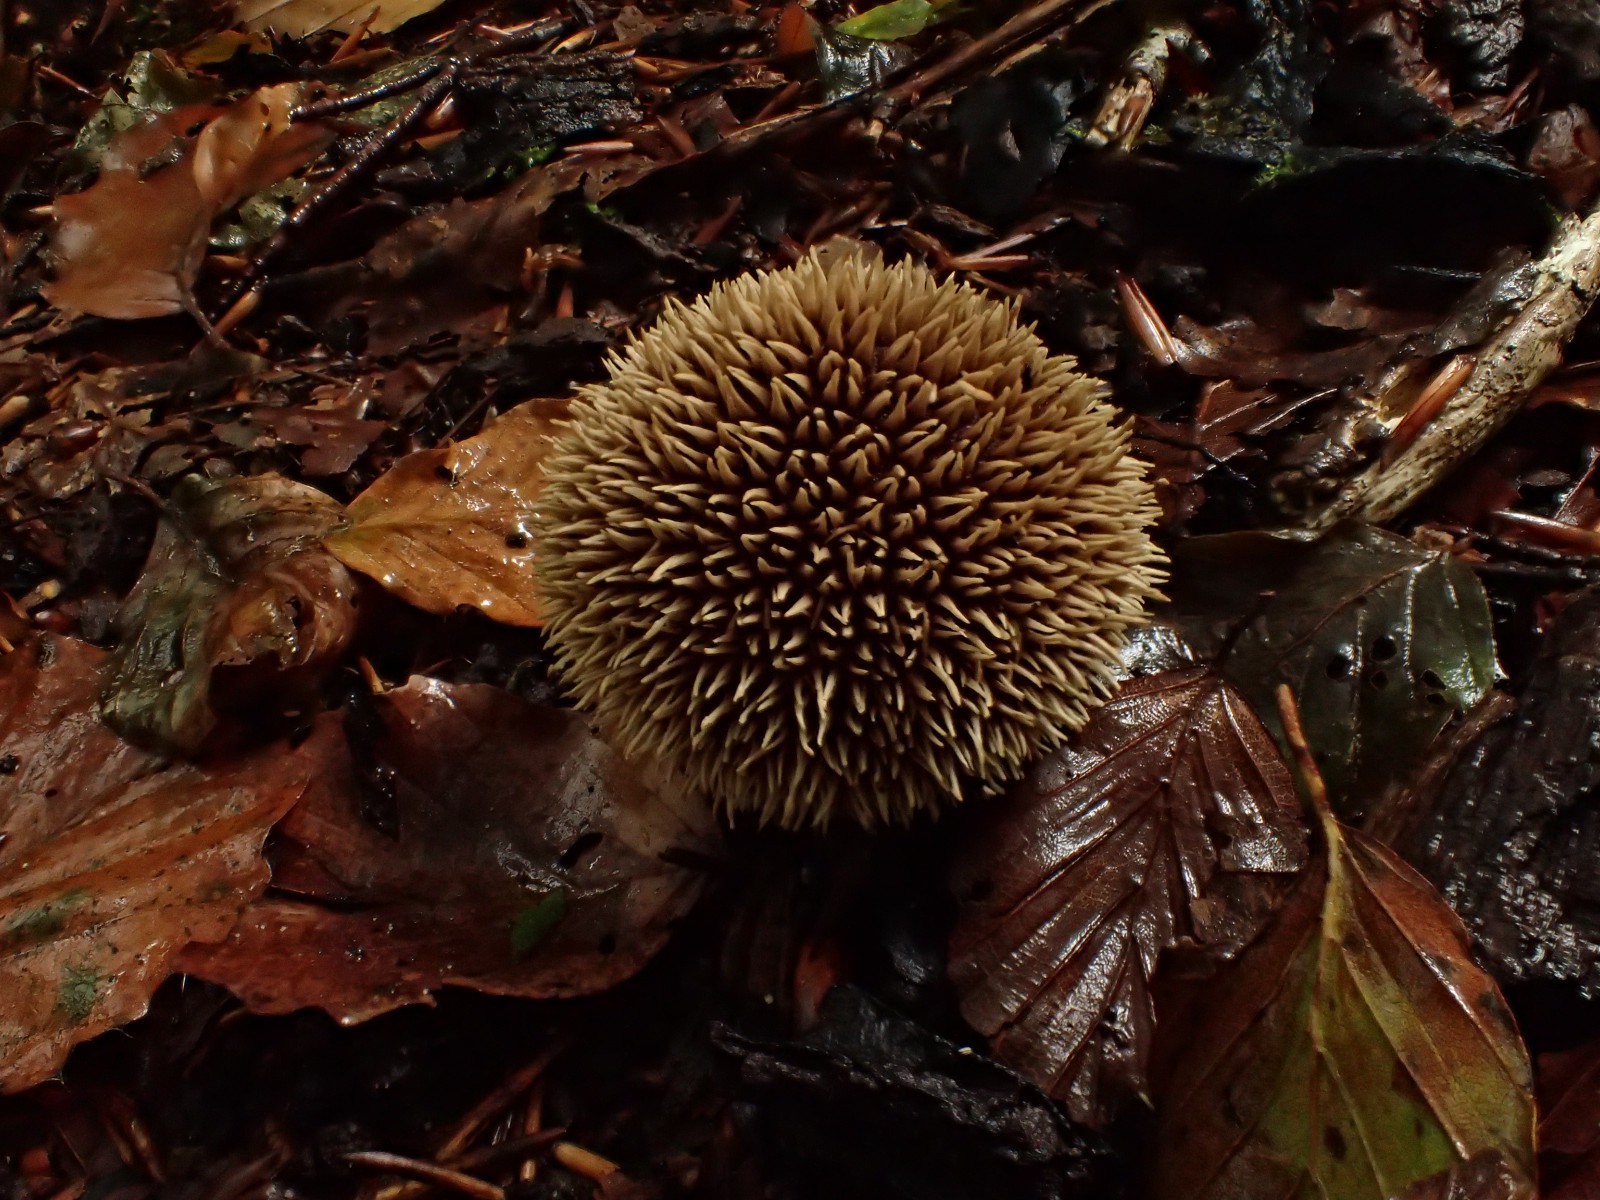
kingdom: Fungi
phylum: Basidiomycota
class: Agaricomycetes
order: Agaricales
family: Lycoperdaceae
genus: Lycoperdon
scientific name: Lycoperdon echinatum
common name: pindsvine-støvbold
